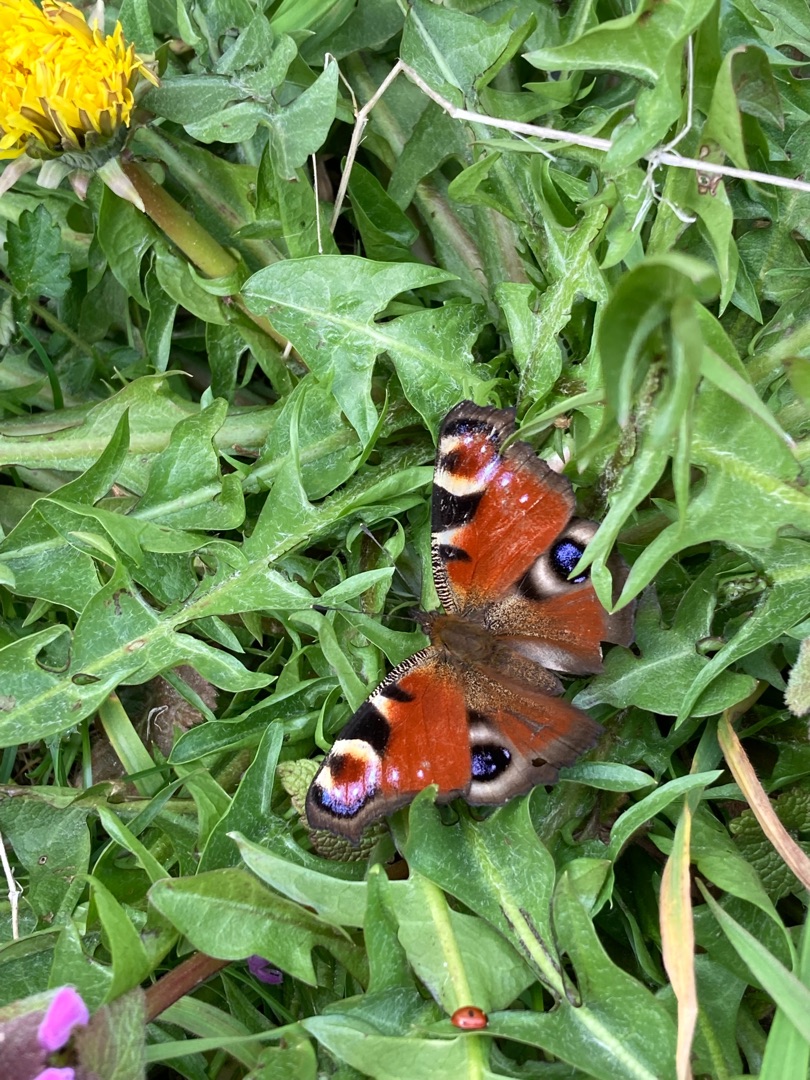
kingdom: Animalia
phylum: Arthropoda
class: Insecta
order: Lepidoptera
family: Nymphalidae
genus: Aglais
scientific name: Aglais io
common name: Dagpåfugleøje
